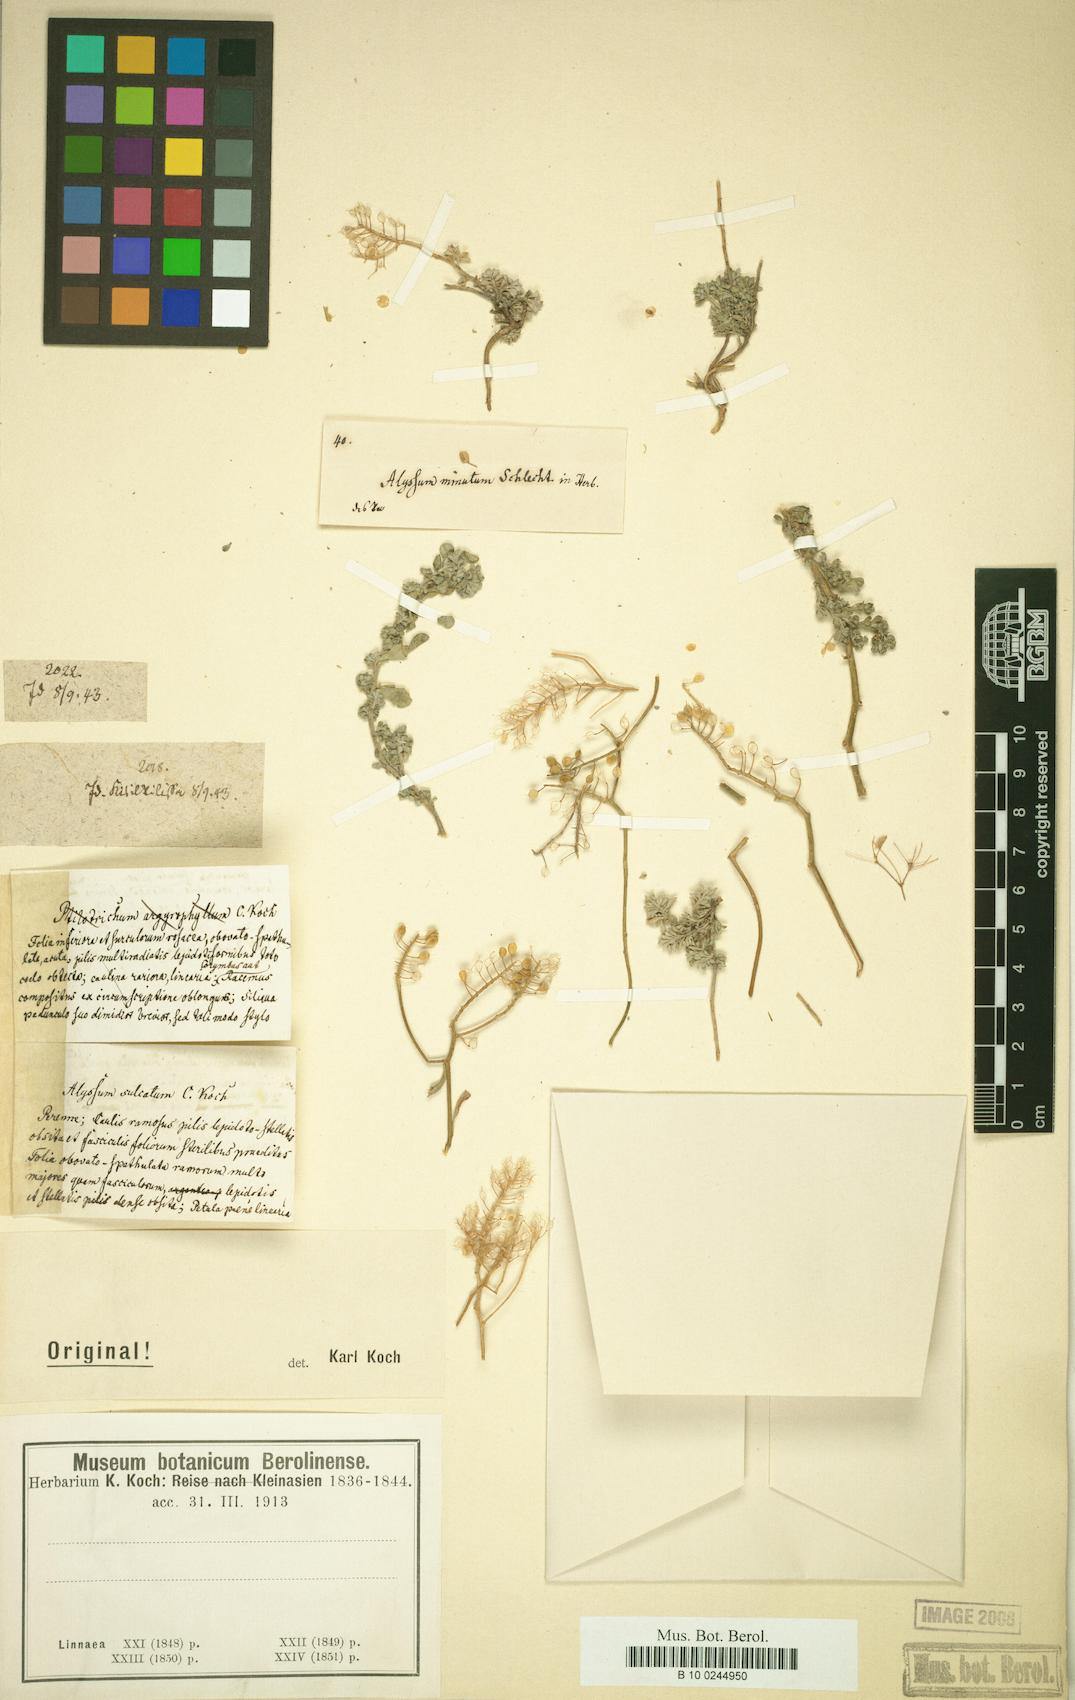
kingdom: Plantae
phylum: Tracheophyta
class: Magnoliopsida
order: Brassicales
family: Brassicaceae
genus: Alyssum
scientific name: Alyssum
